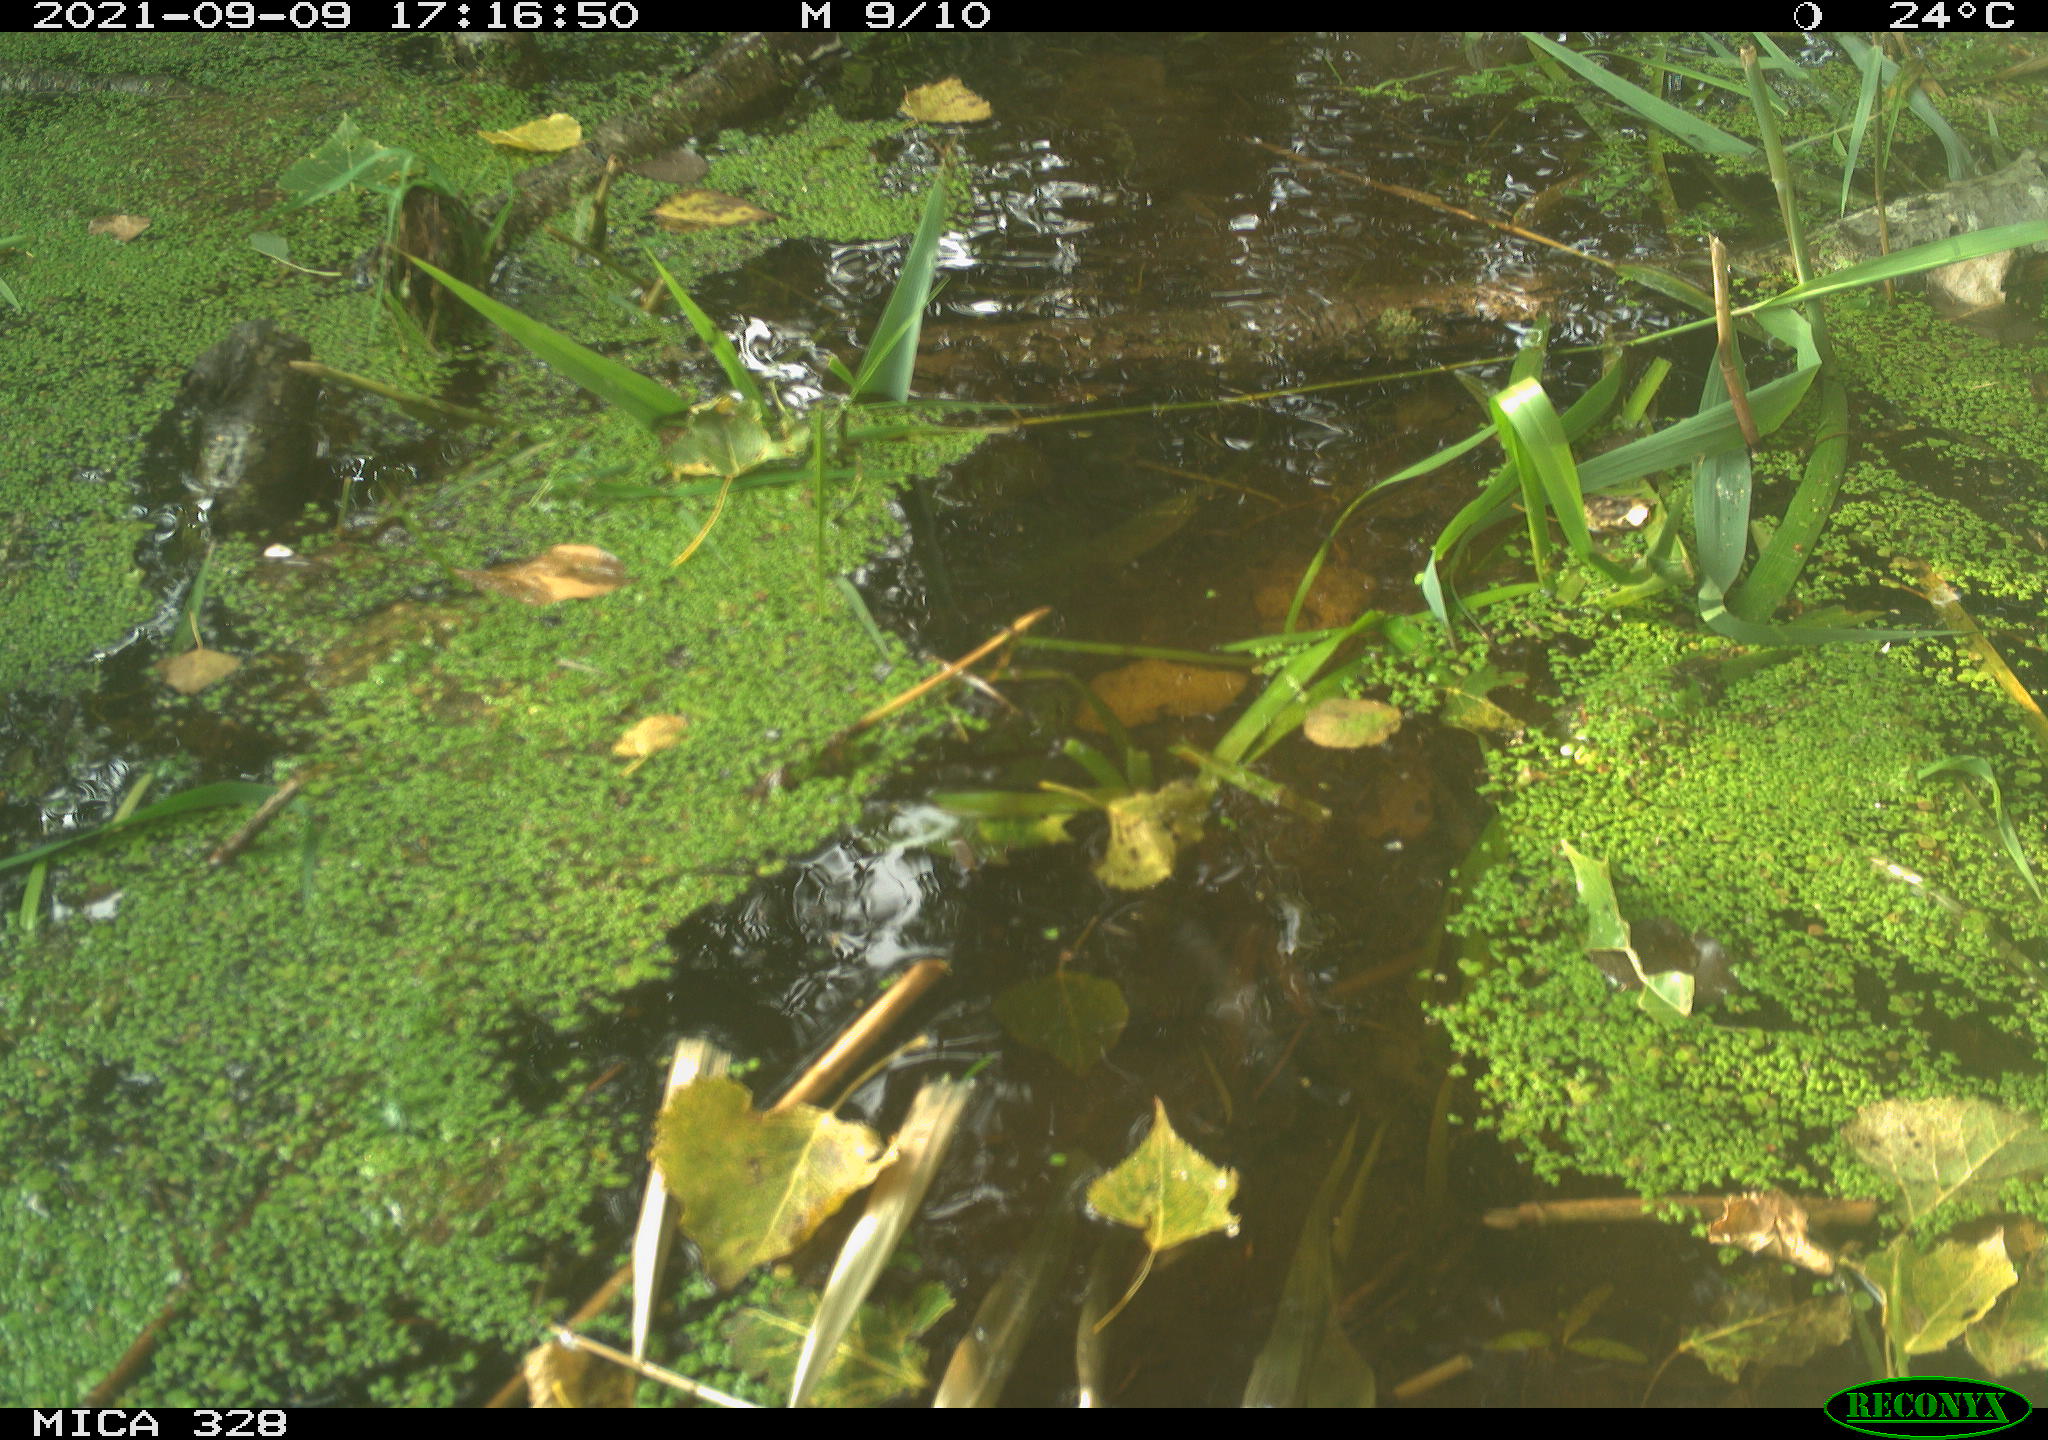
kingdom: Animalia
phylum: Chordata
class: Mammalia
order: Rodentia
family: Cricetidae
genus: Ondatra
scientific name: Ondatra zibethicus
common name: Muskrat
